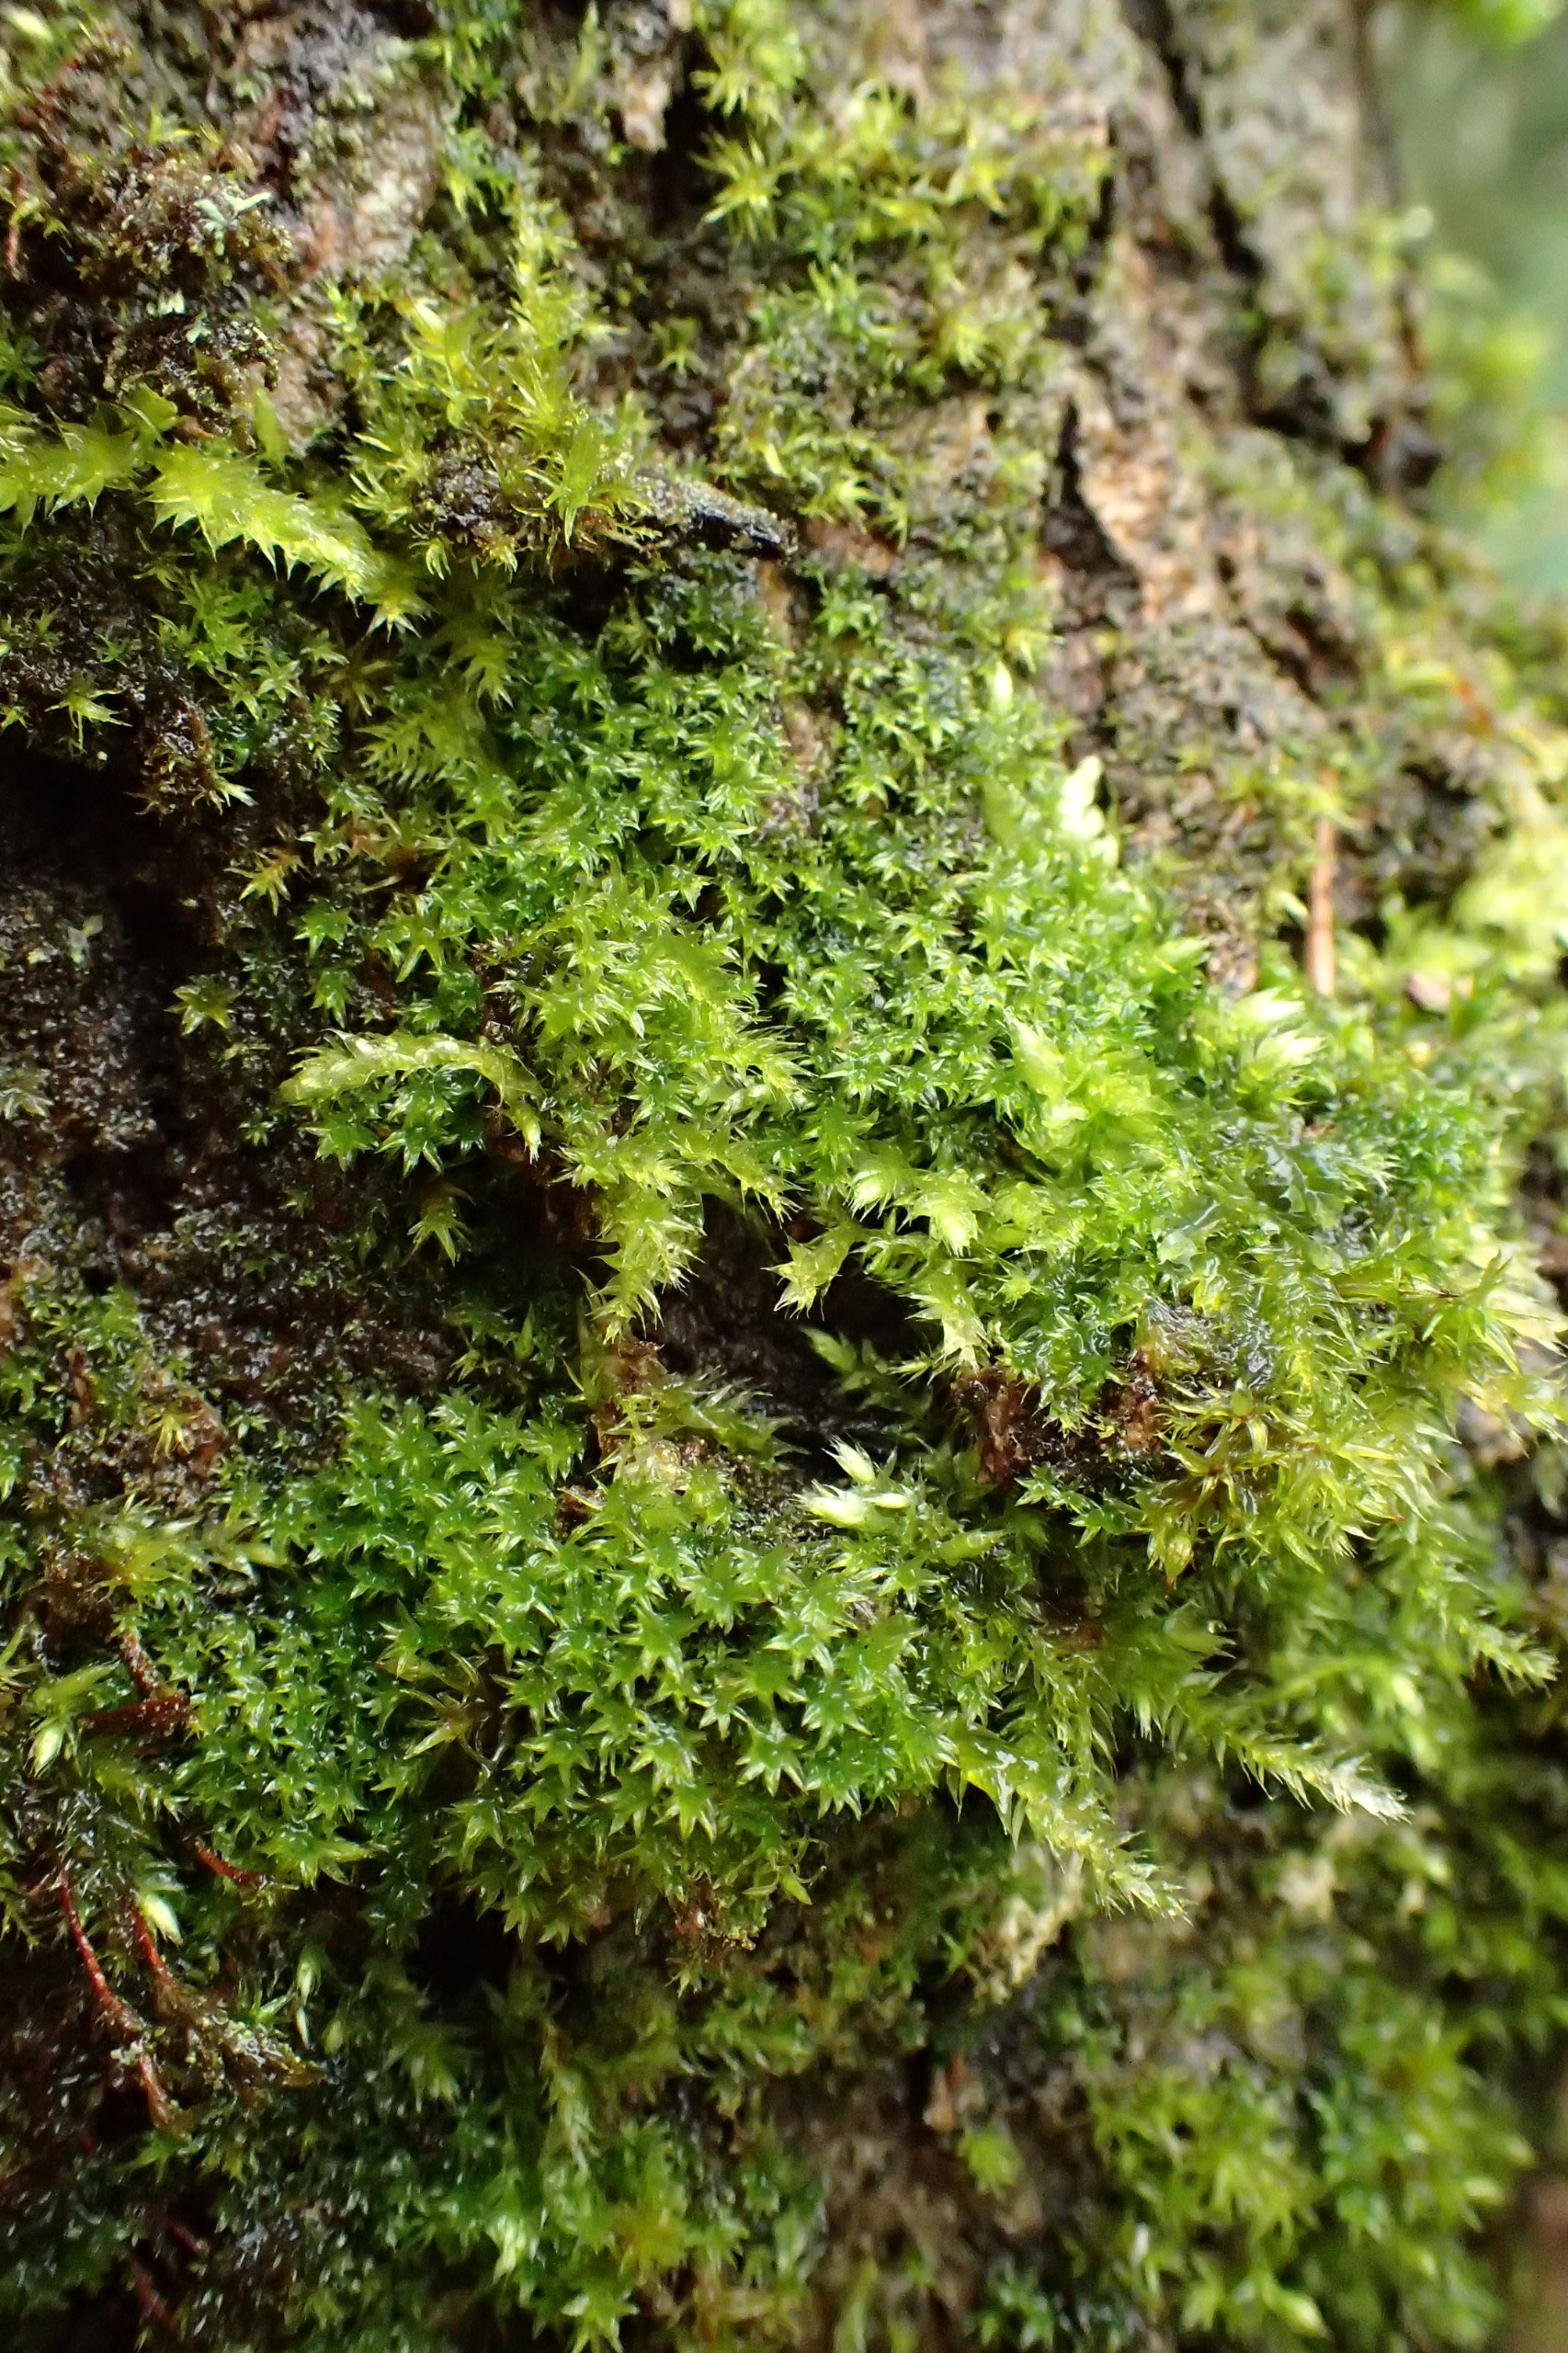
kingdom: Plantae
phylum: Bryophyta
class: Bryopsida
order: Orthotrichales
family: Orthotrichaceae
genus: Zygodon
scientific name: Zygodon conoideus
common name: Tand-køllemos
